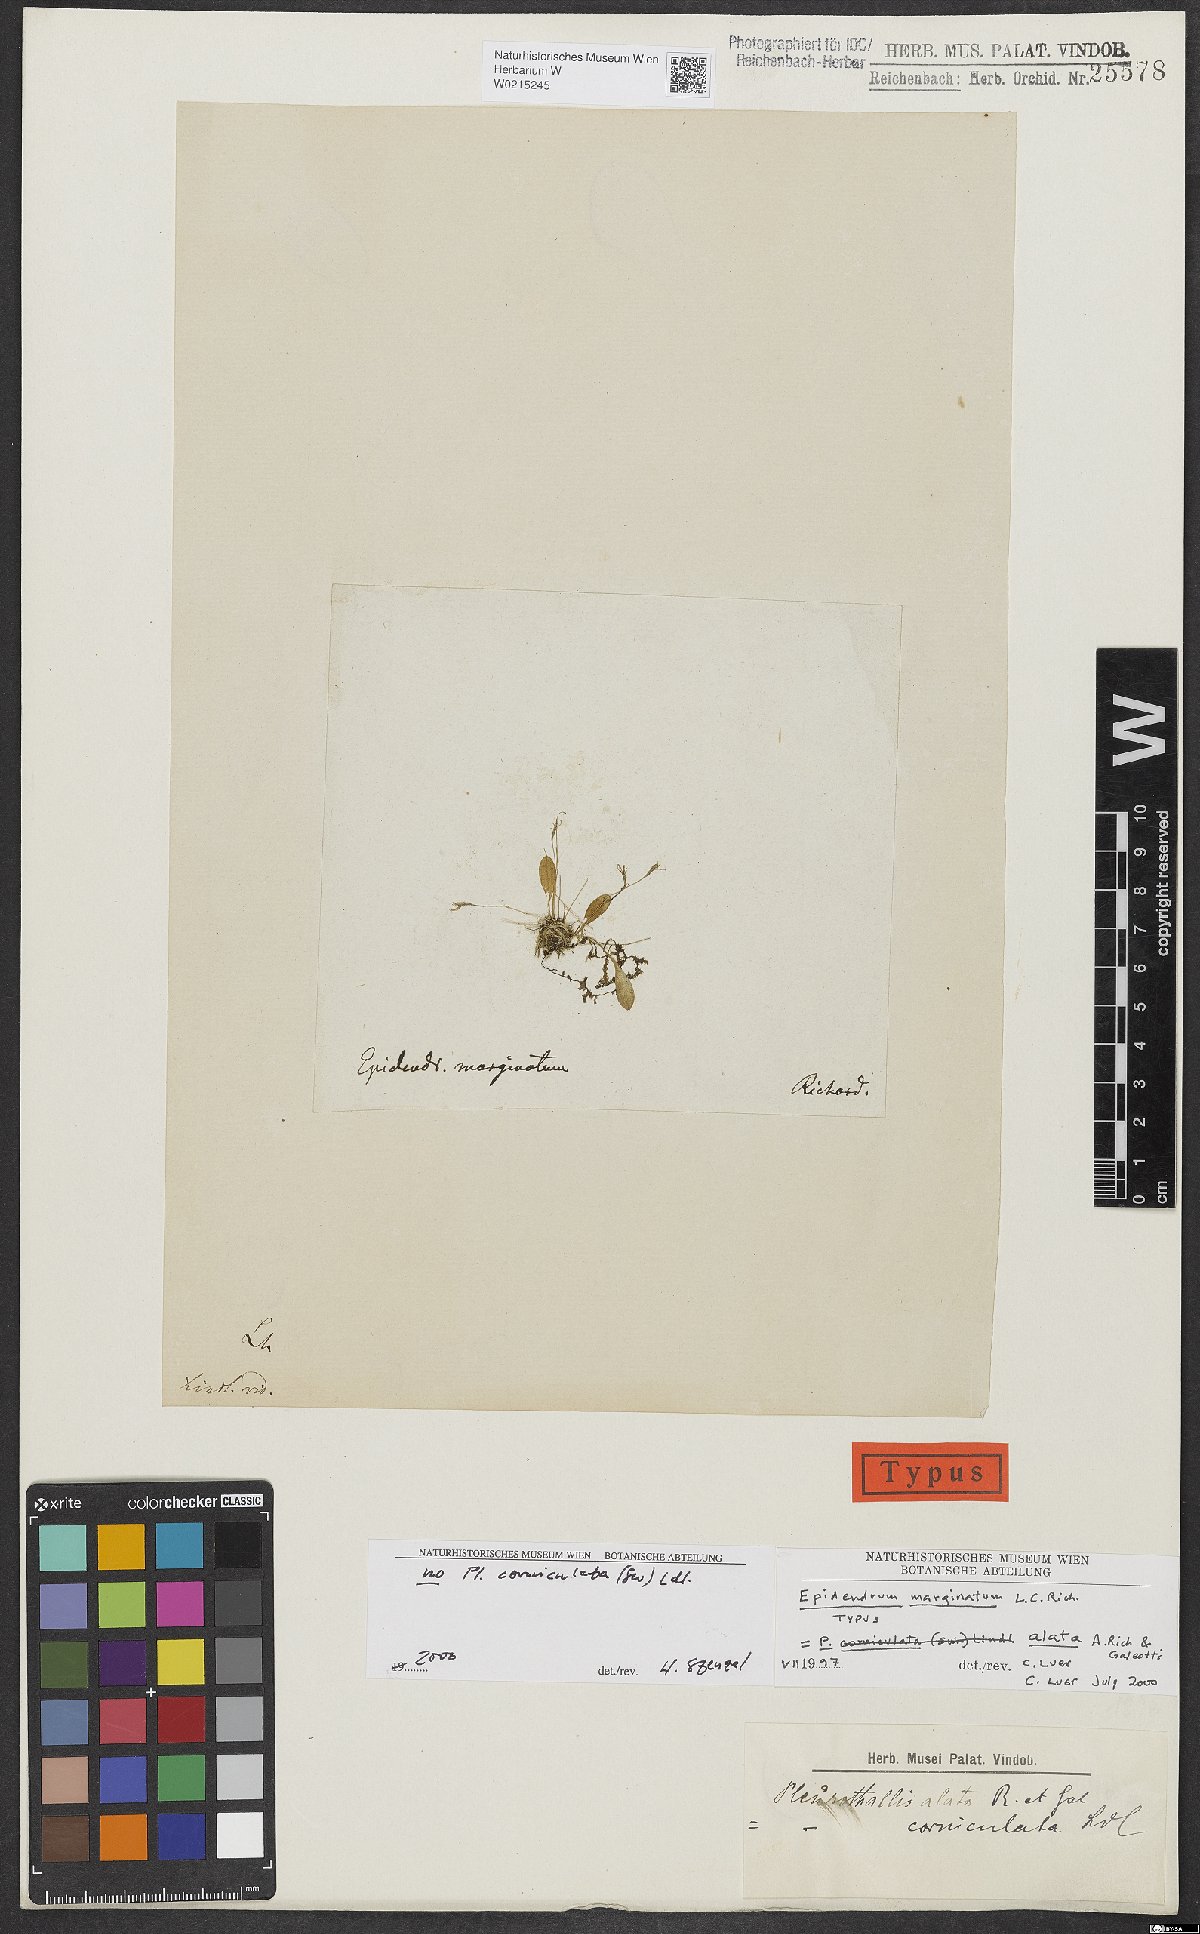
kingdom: Plantae
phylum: Tracheophyta
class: Liliopsida
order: Asparagales
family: Orchidaceae
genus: Muscarella
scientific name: Muscarella marginata
